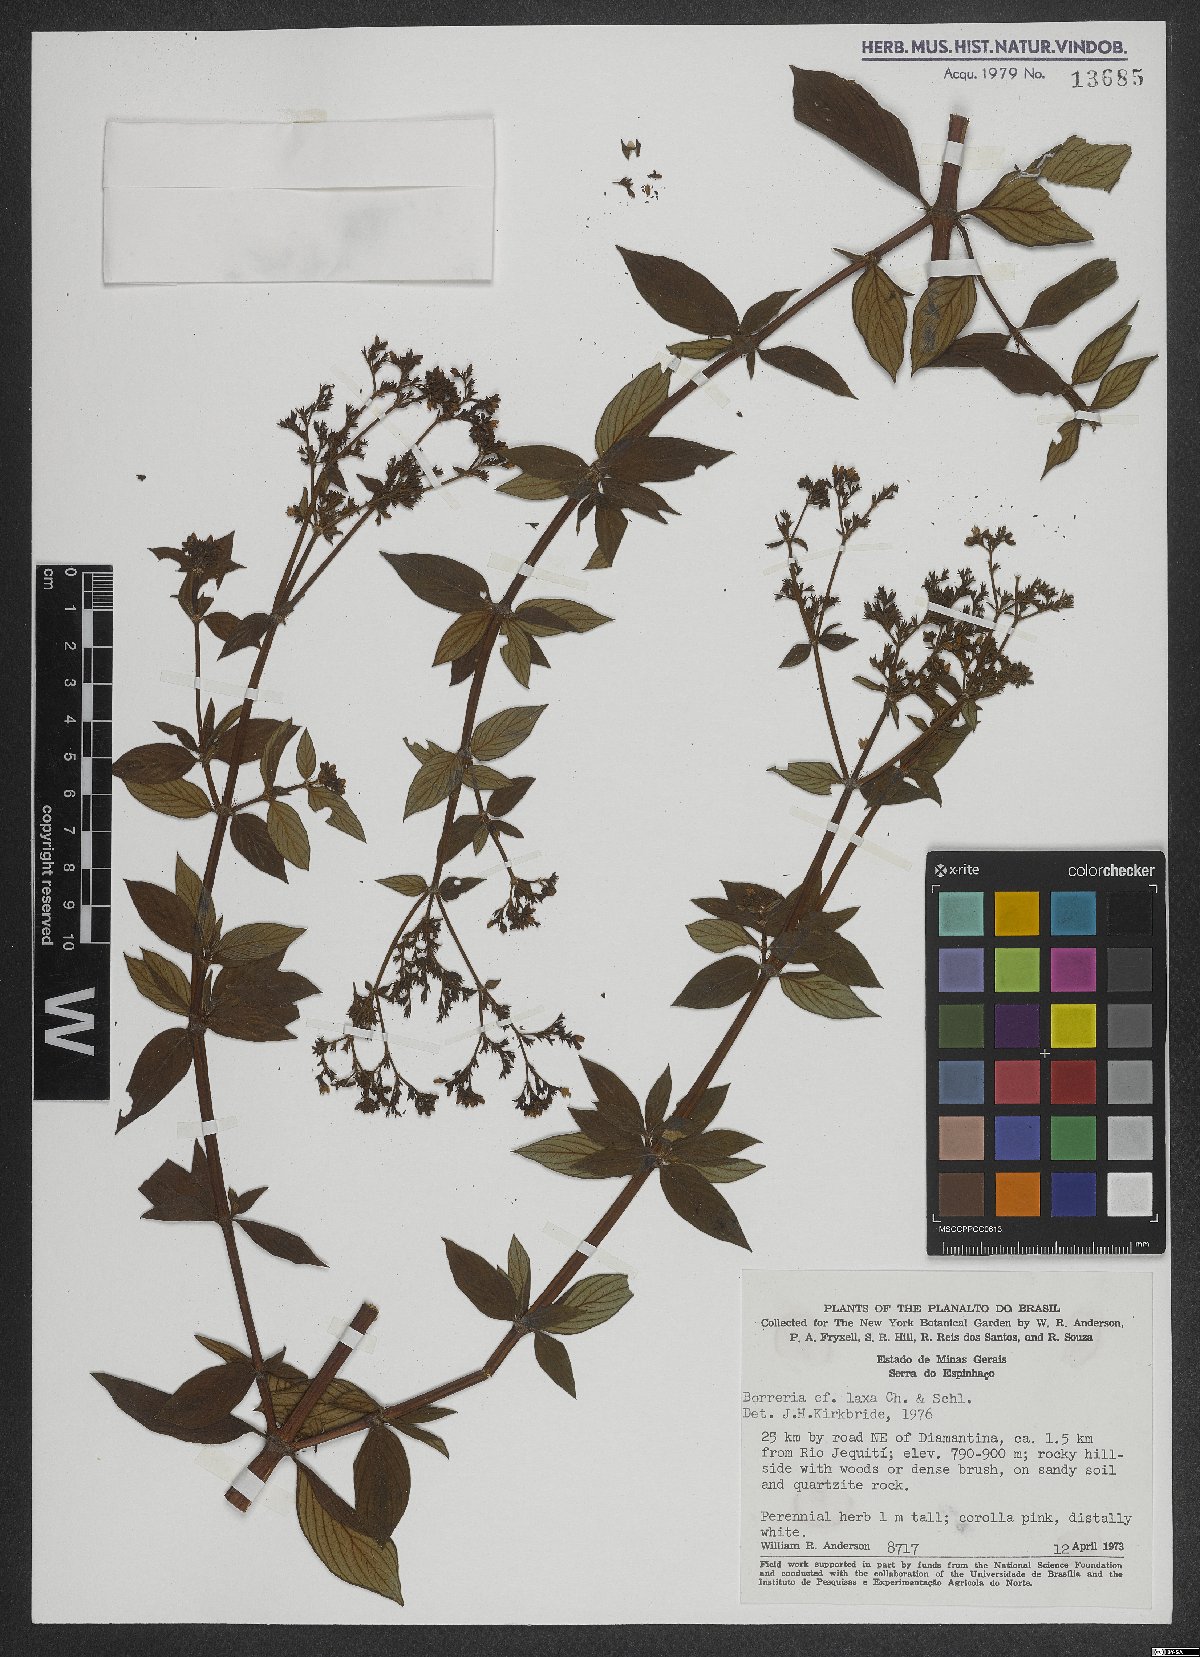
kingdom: Plantae
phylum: Tracheophyta
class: Magnoliopsida
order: Gentianales
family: Rubiaceae
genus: Galianthe
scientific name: Galianthe laxa
